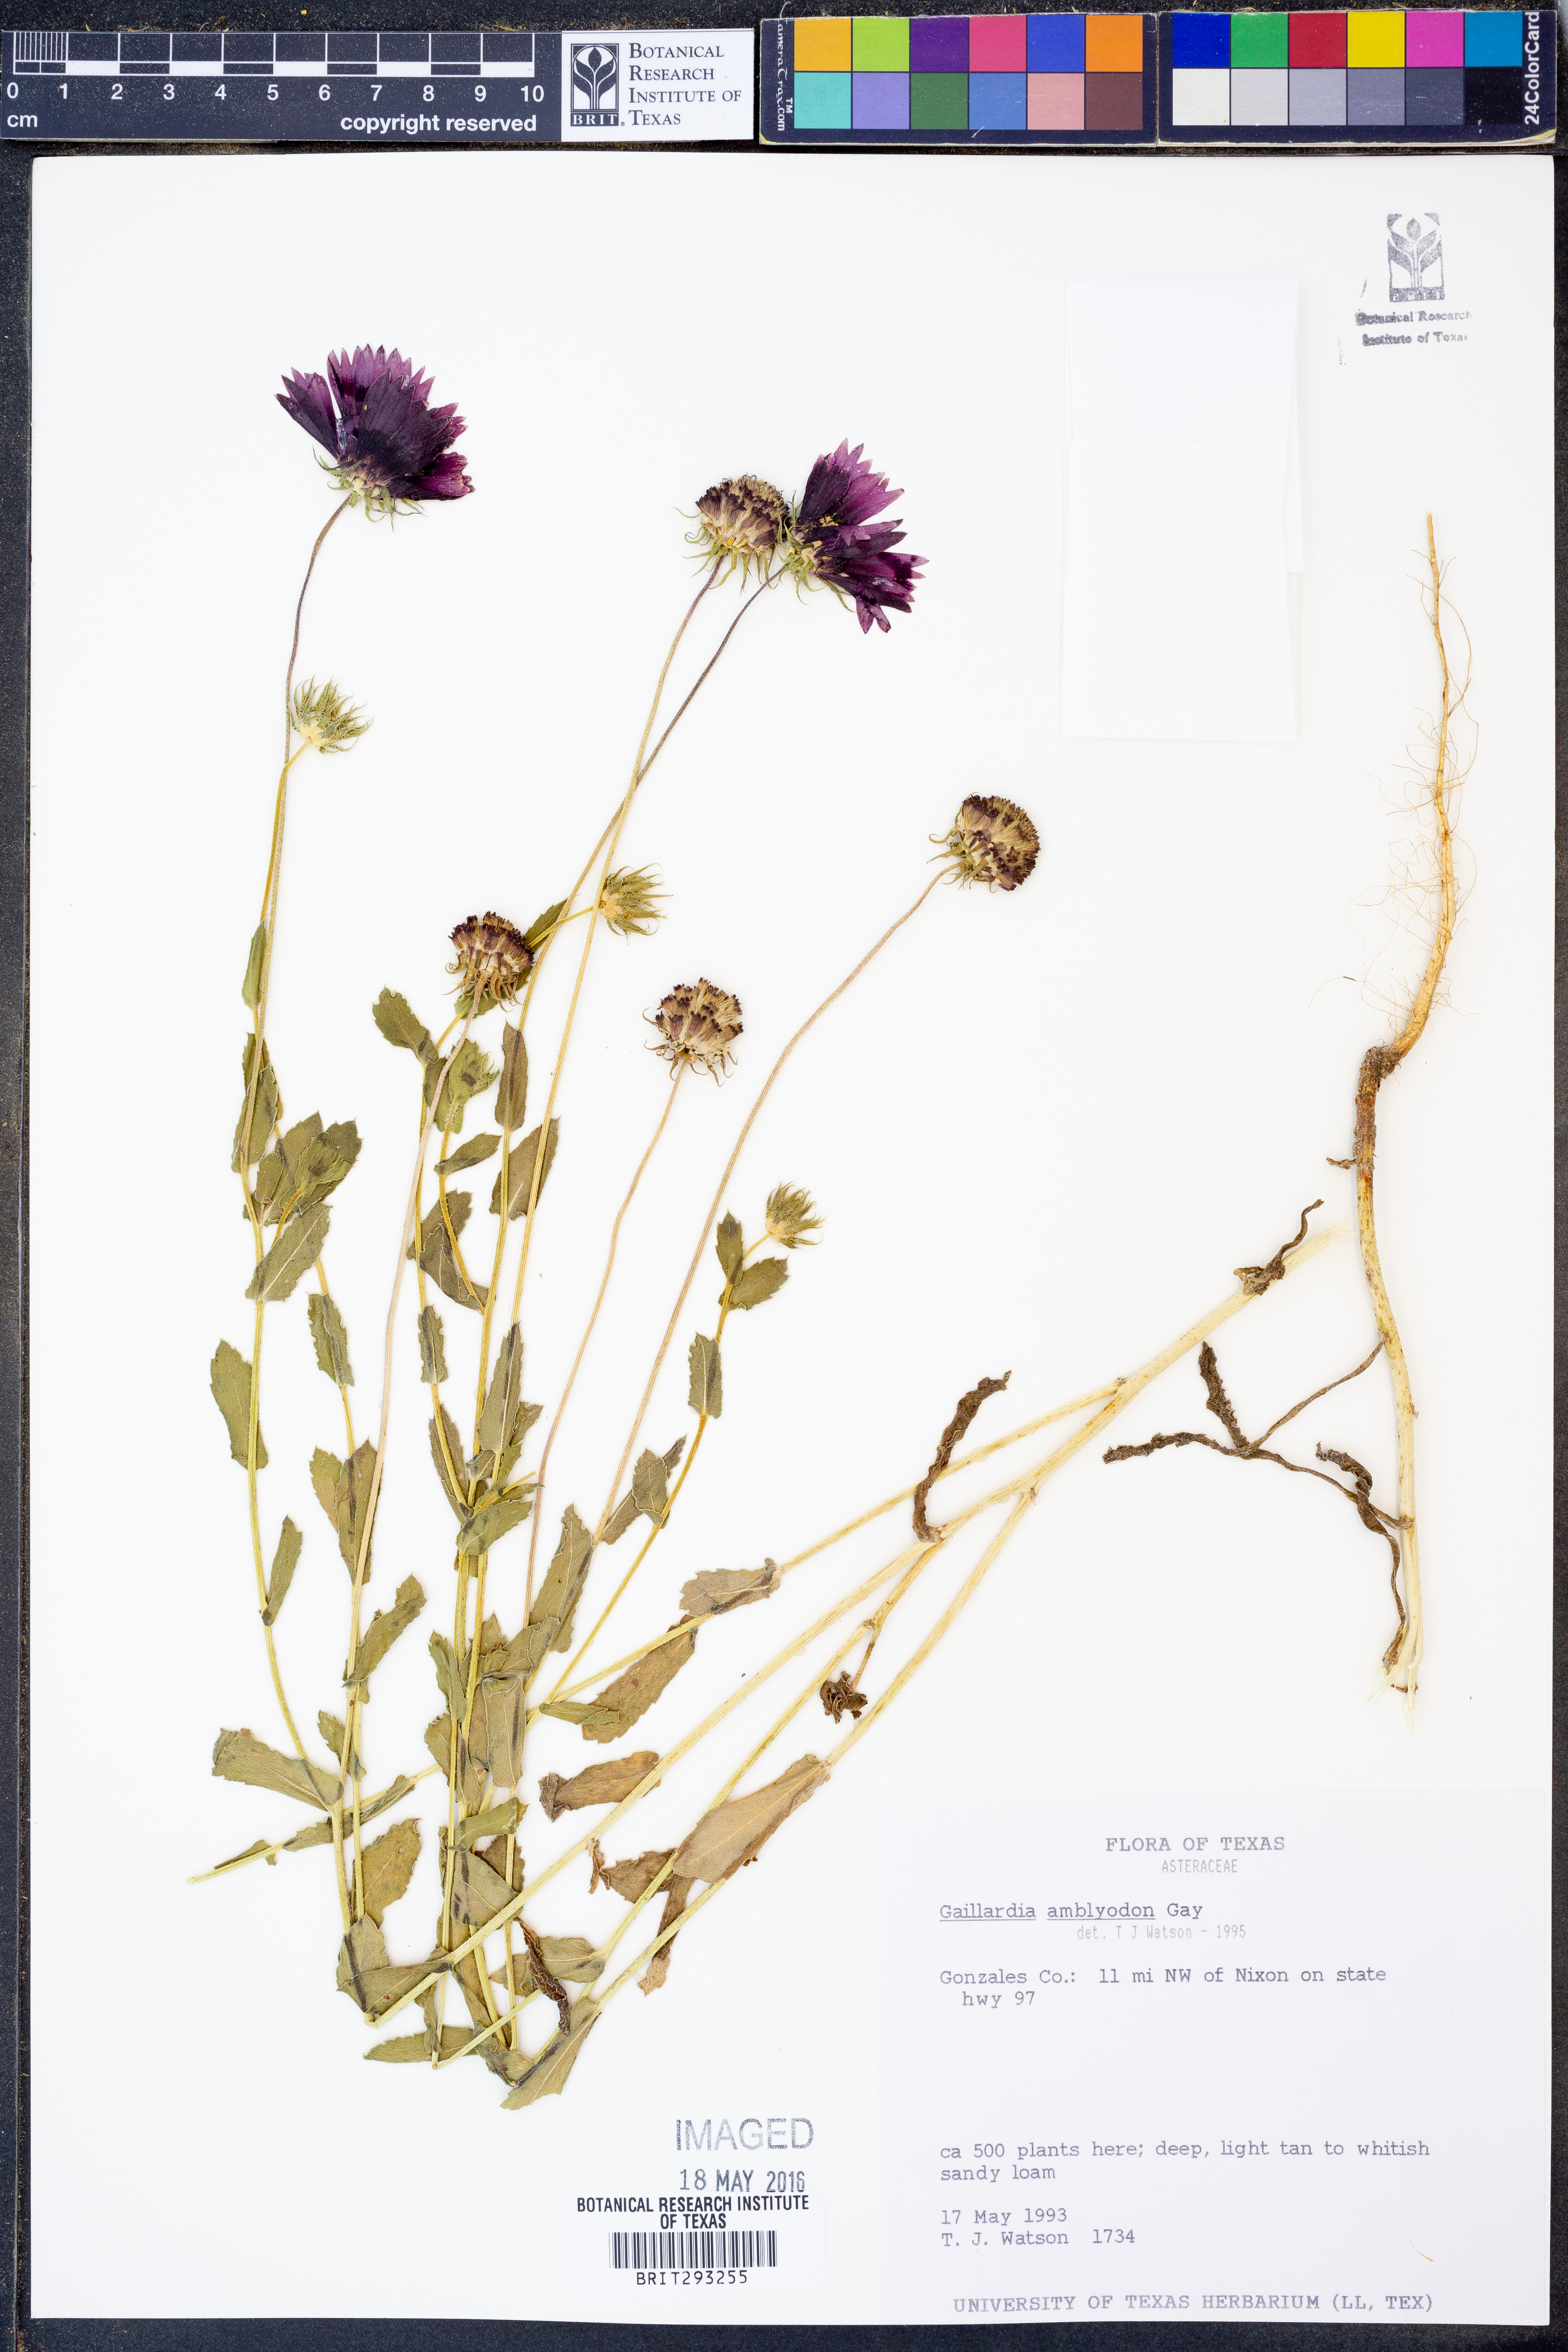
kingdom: Plantae
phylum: Tracheophyta
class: Magnoliopsida
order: Asterales
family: Asteraceae
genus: Gaillardia
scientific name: Gaillardia amblyodon
